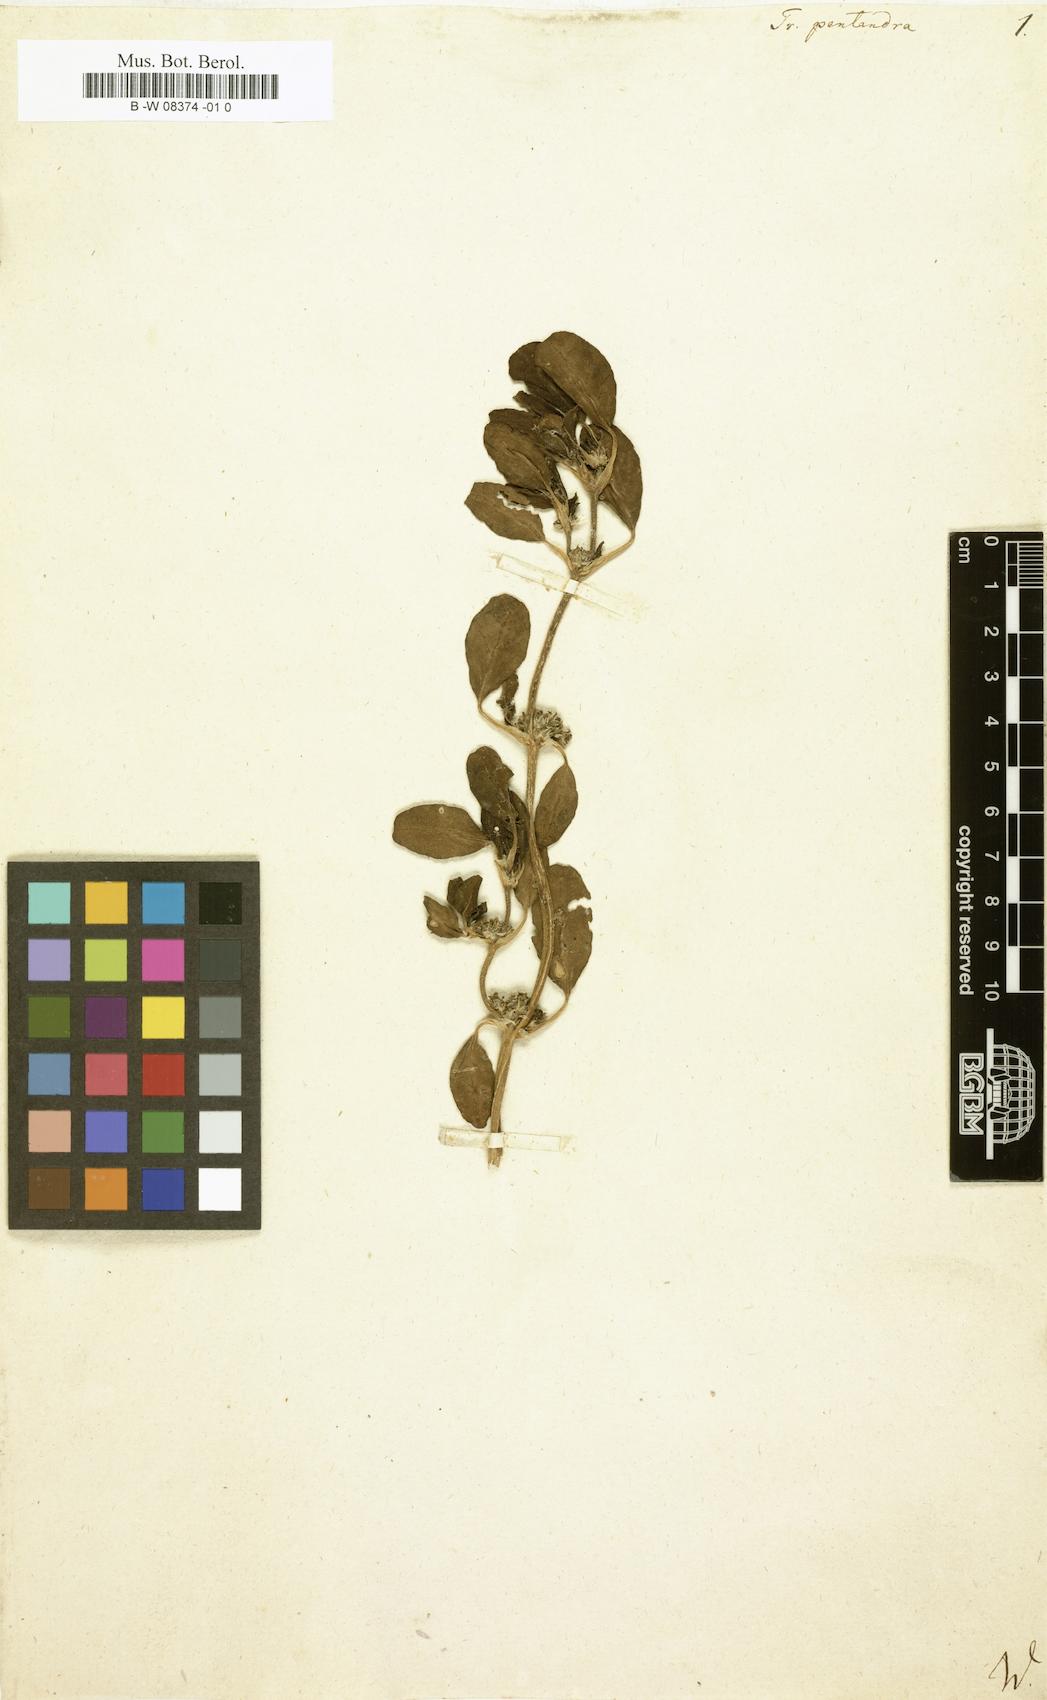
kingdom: Plantae
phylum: Tracheophyta
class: Magnoliopsida
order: Caryophyllales
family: Aizoaceae
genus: Zaleya
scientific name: Zaleya pentandra
